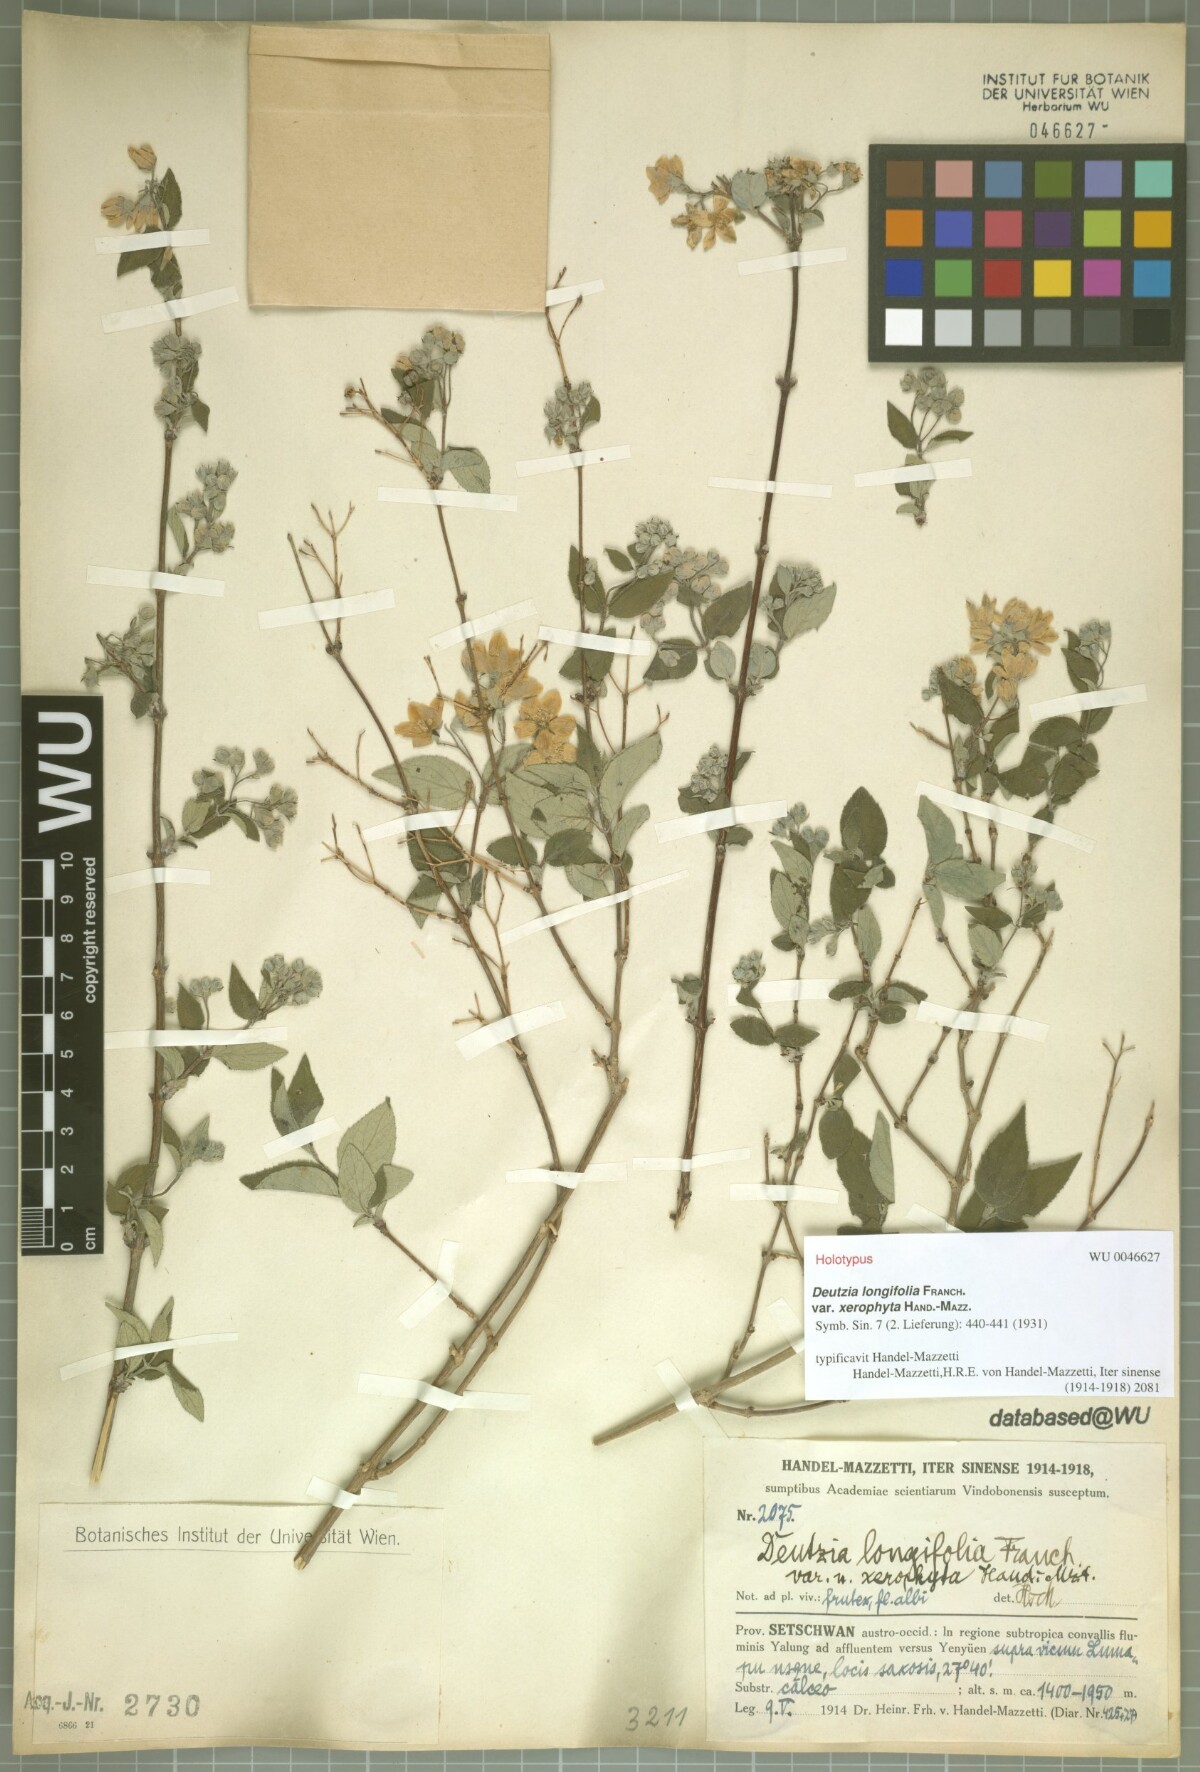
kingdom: Plantae
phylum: Tracheophyta
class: Magnoliopsida
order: Cornales
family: Hydrangeaceae
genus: Deutzia
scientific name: Deutzia calycosa
